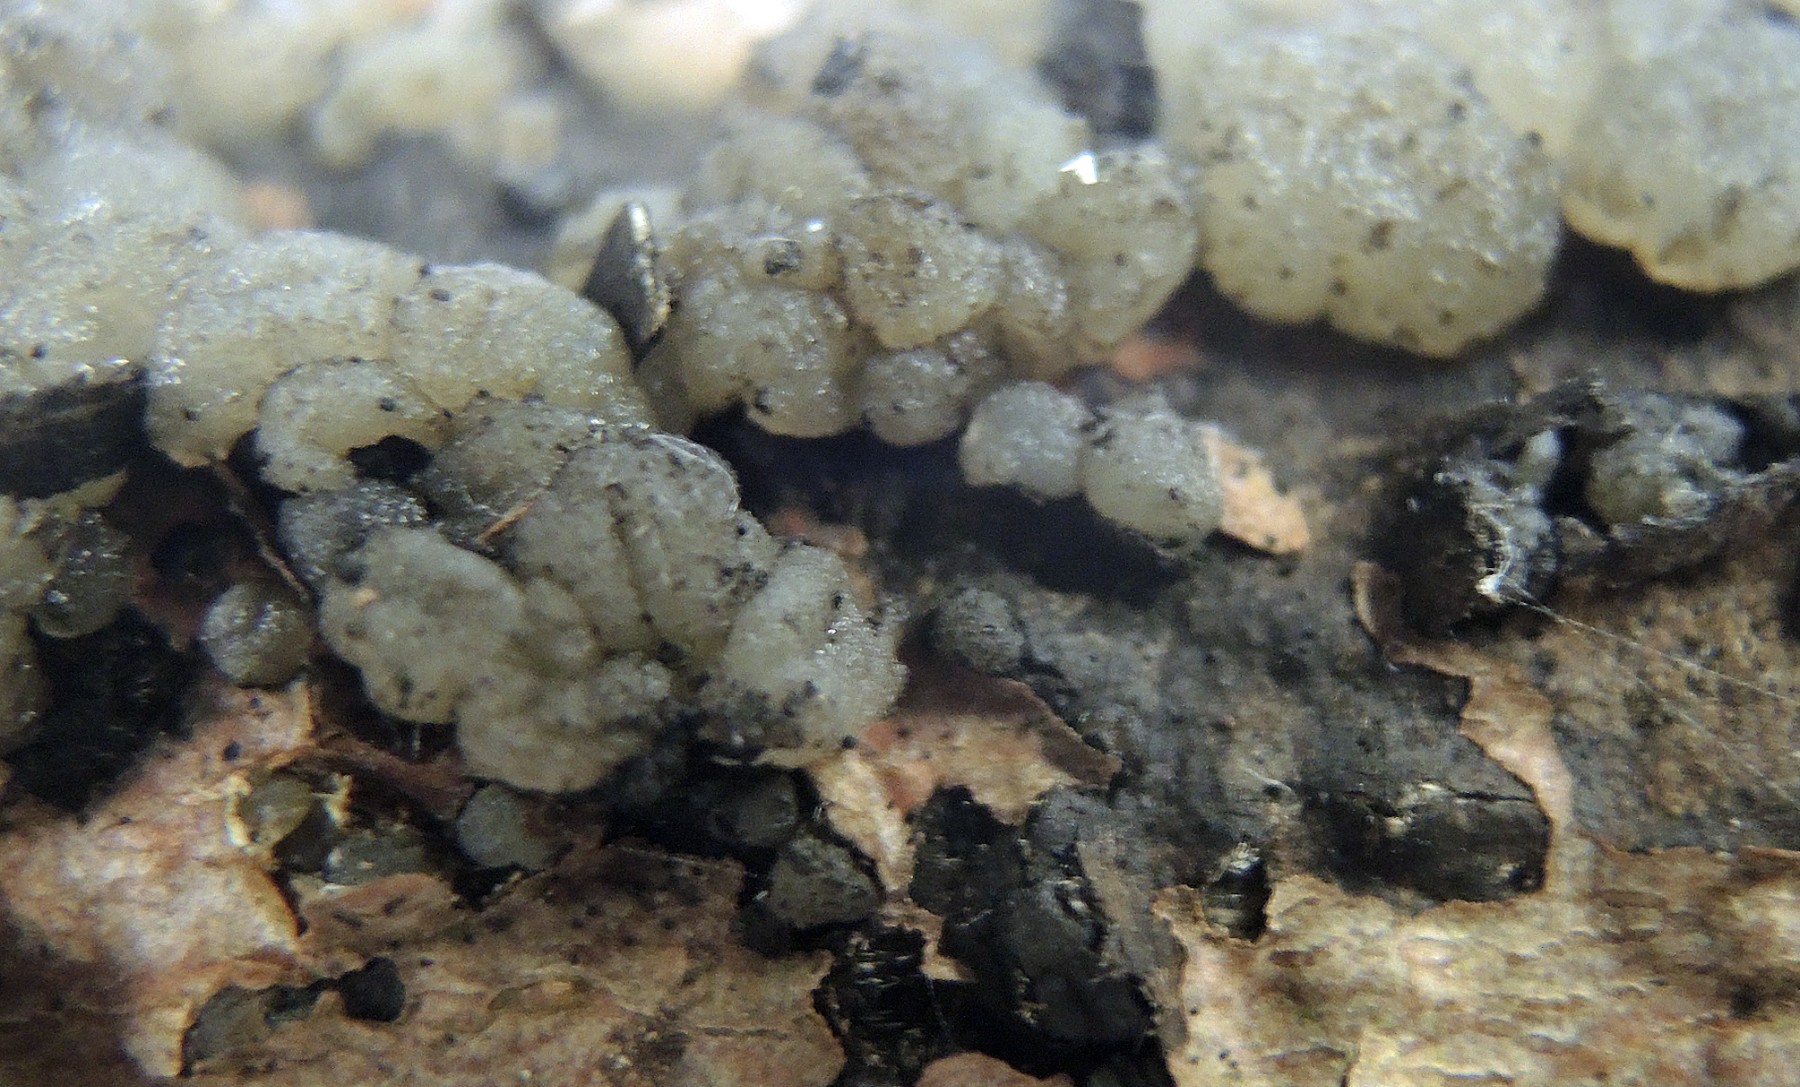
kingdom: Fungi
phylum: Basidiomycota
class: Tremellomycetes
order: Tremellales
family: Tremellaceae
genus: Tremella
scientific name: Tremella indecorata
